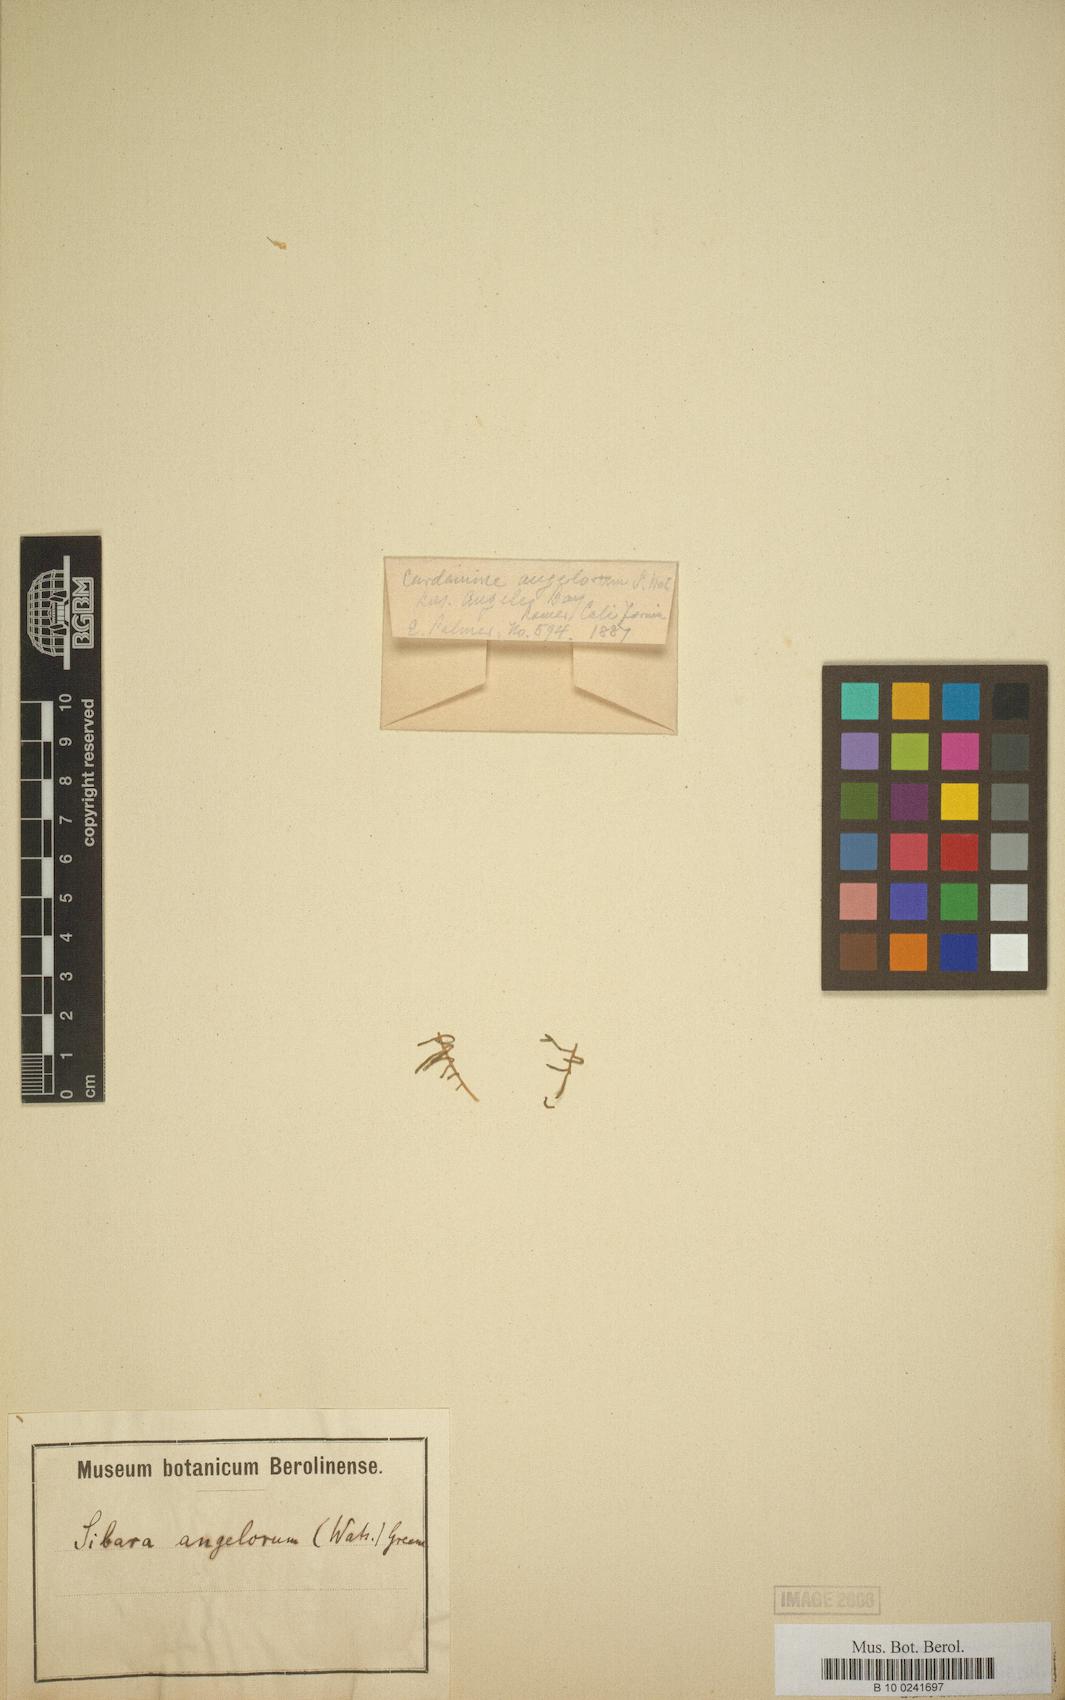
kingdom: Plantae
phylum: Tracheophyta
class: Magnoliopsida
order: Brassicales
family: Brassicaceae
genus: Sibara
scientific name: Sibara angelorum
